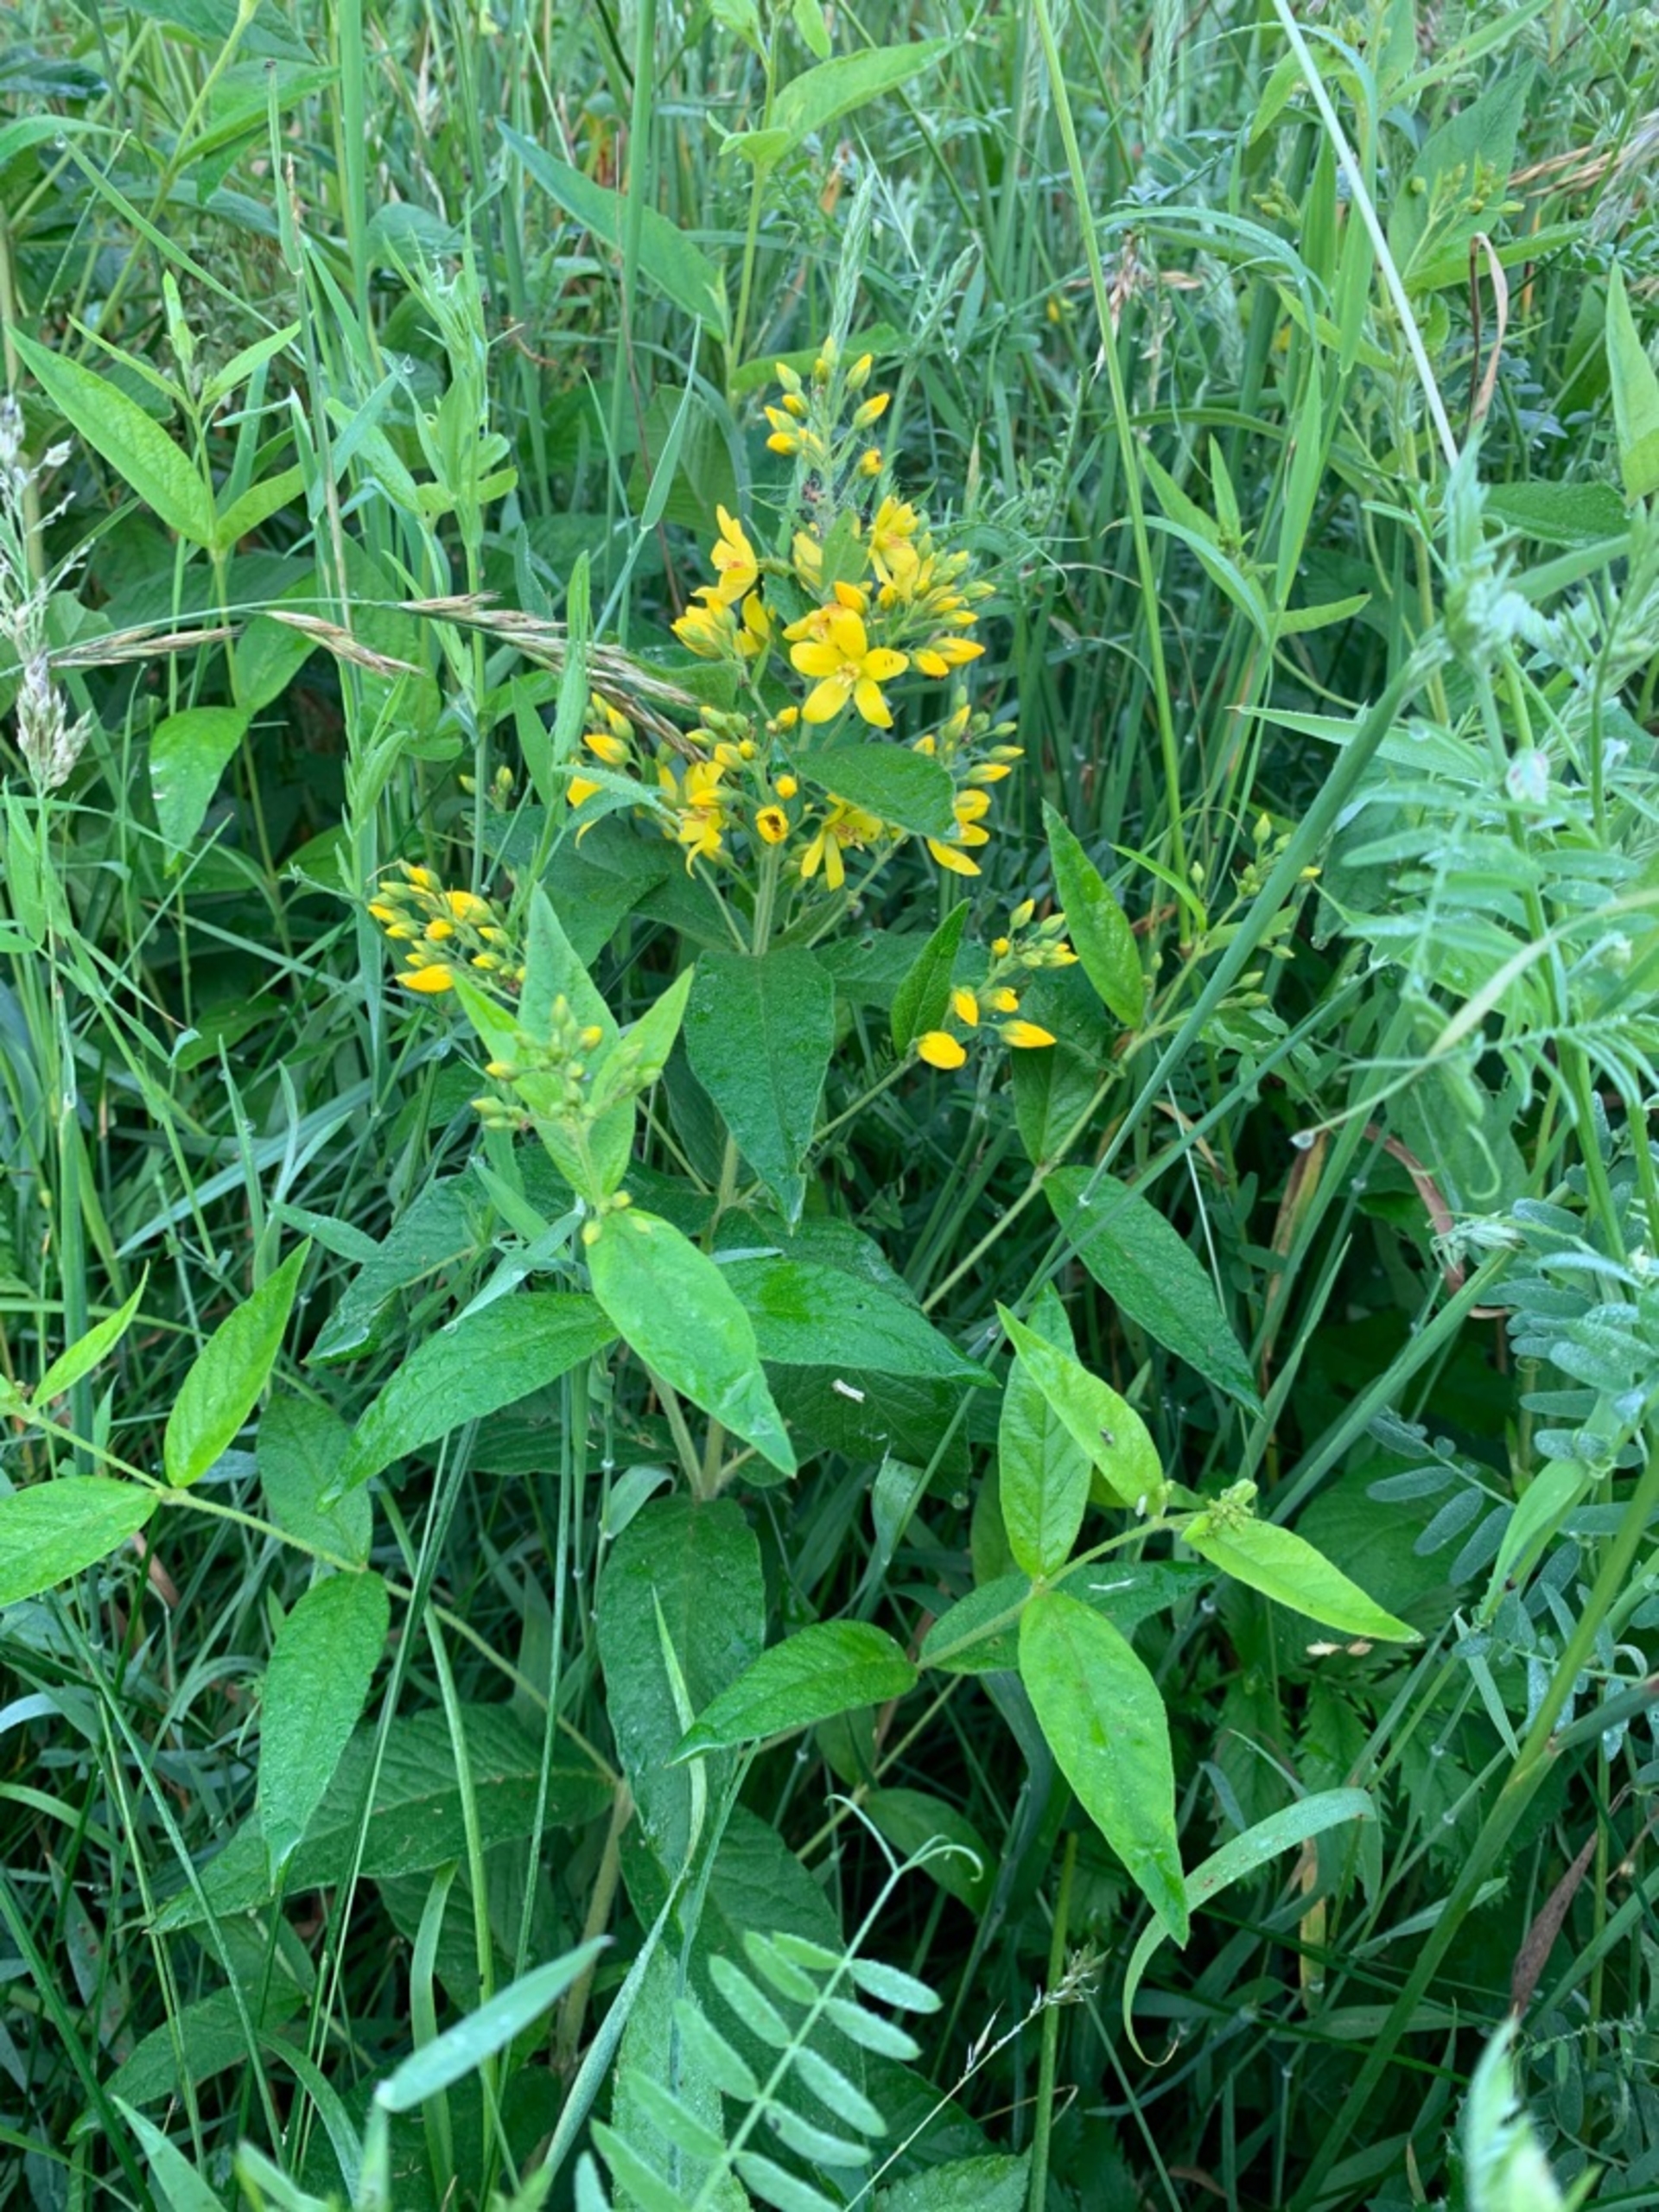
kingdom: Plantae
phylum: Tracheophyta
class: Magnoliopsida
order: Ericales
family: Primulaceae
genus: Lysimachia
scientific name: Lysimachia vulgaris
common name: Almindelig fredløs
